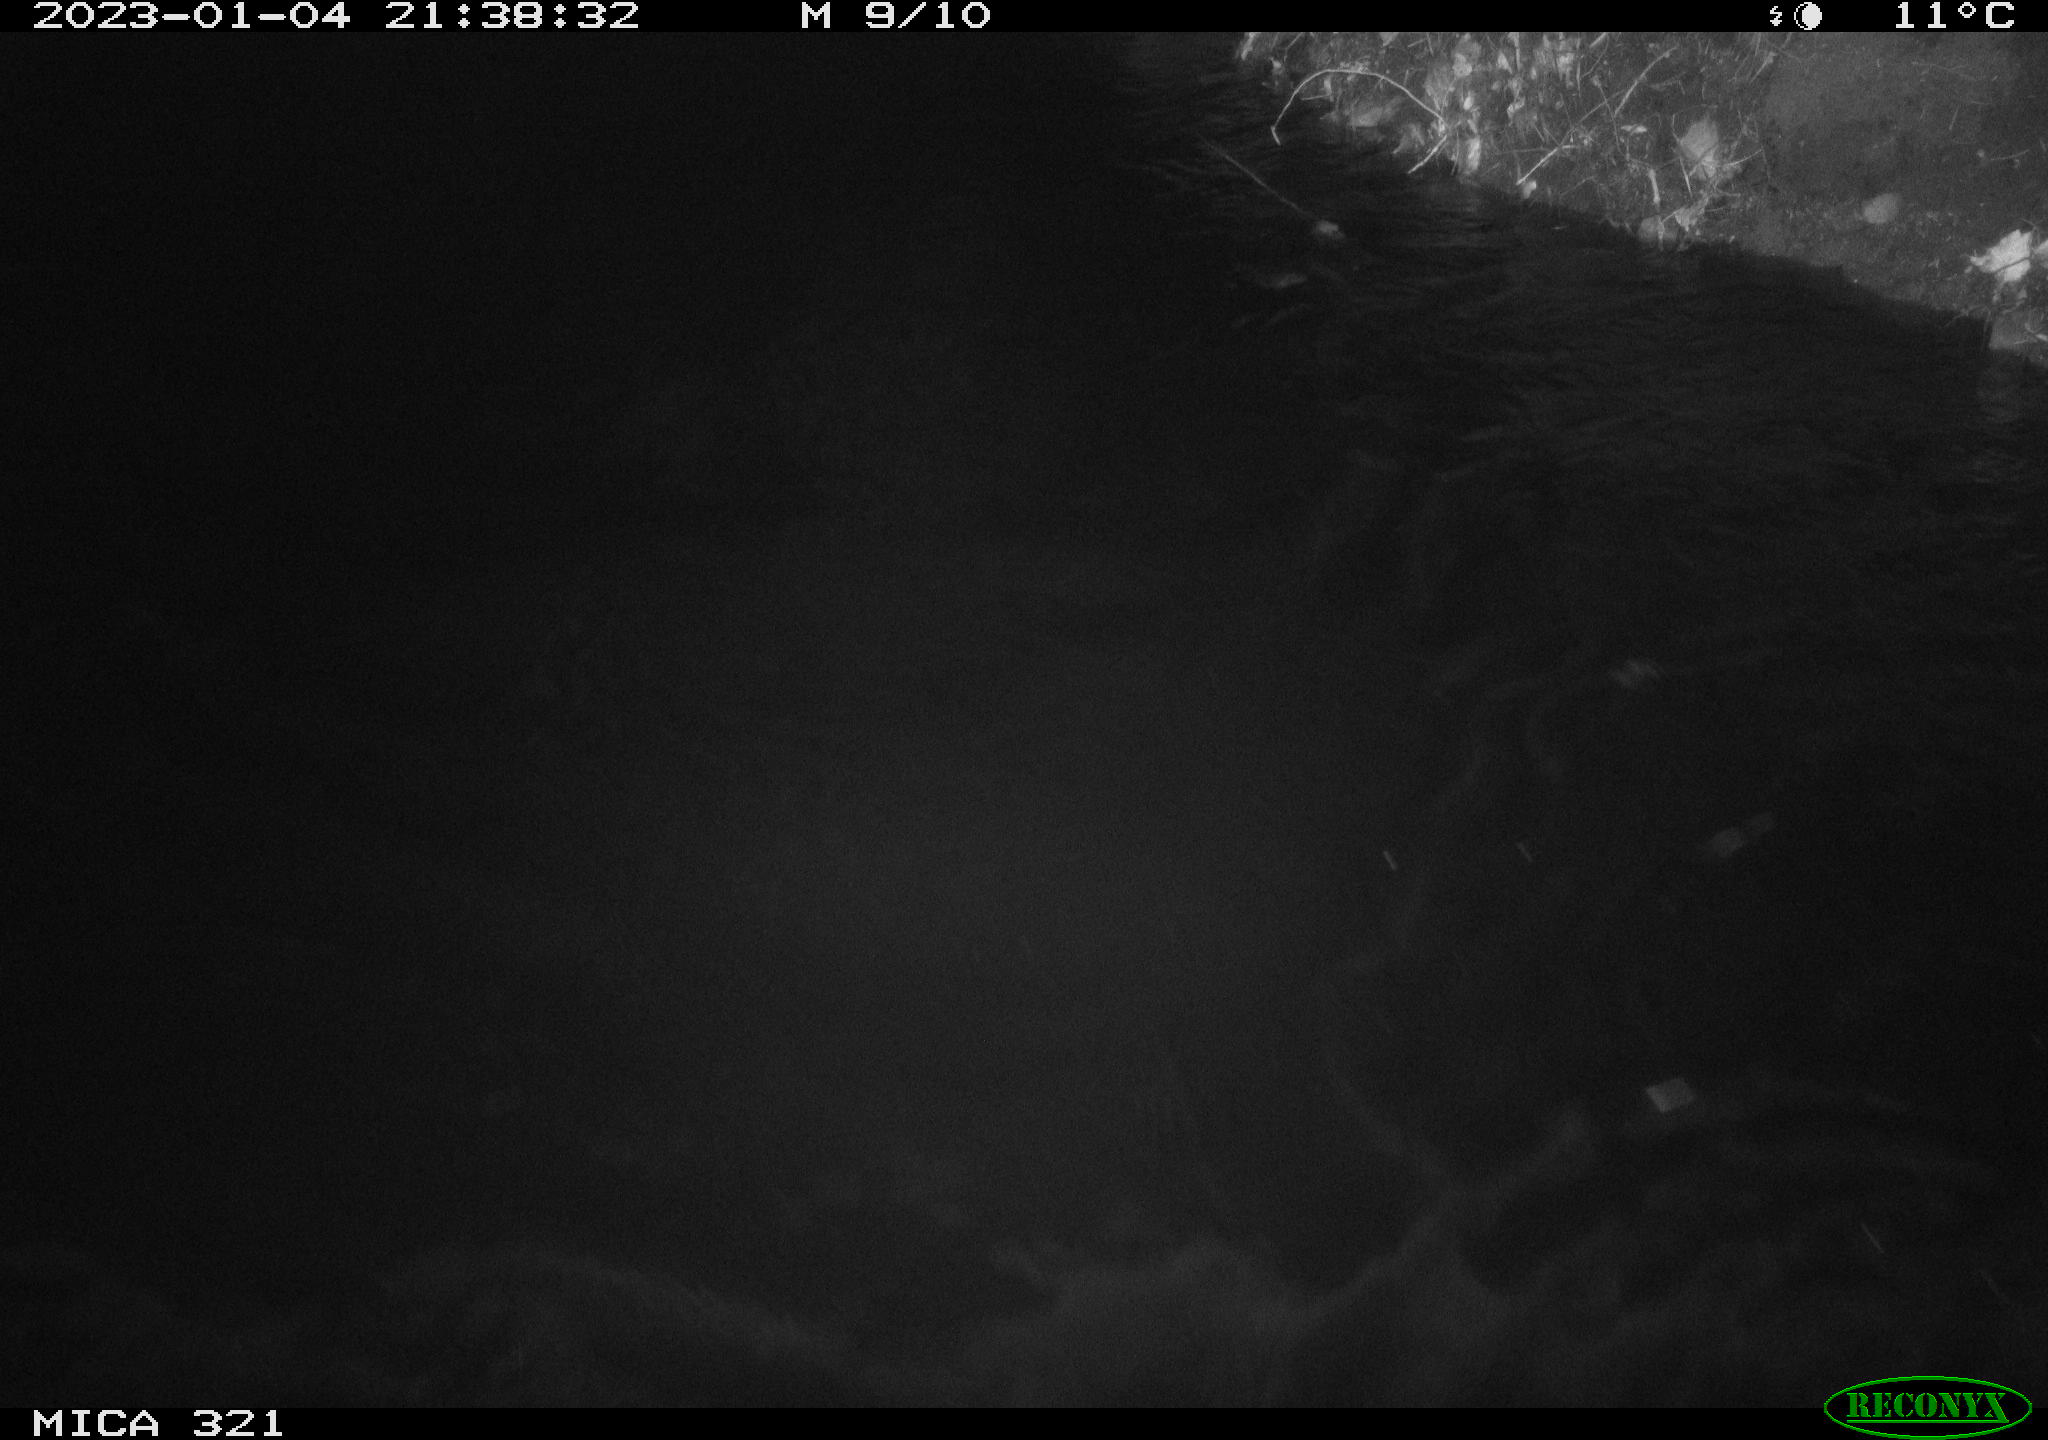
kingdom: Animalia
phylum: Chordata
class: Aves
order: Anseriformes
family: Anatidae
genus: Anas
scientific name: Anas
